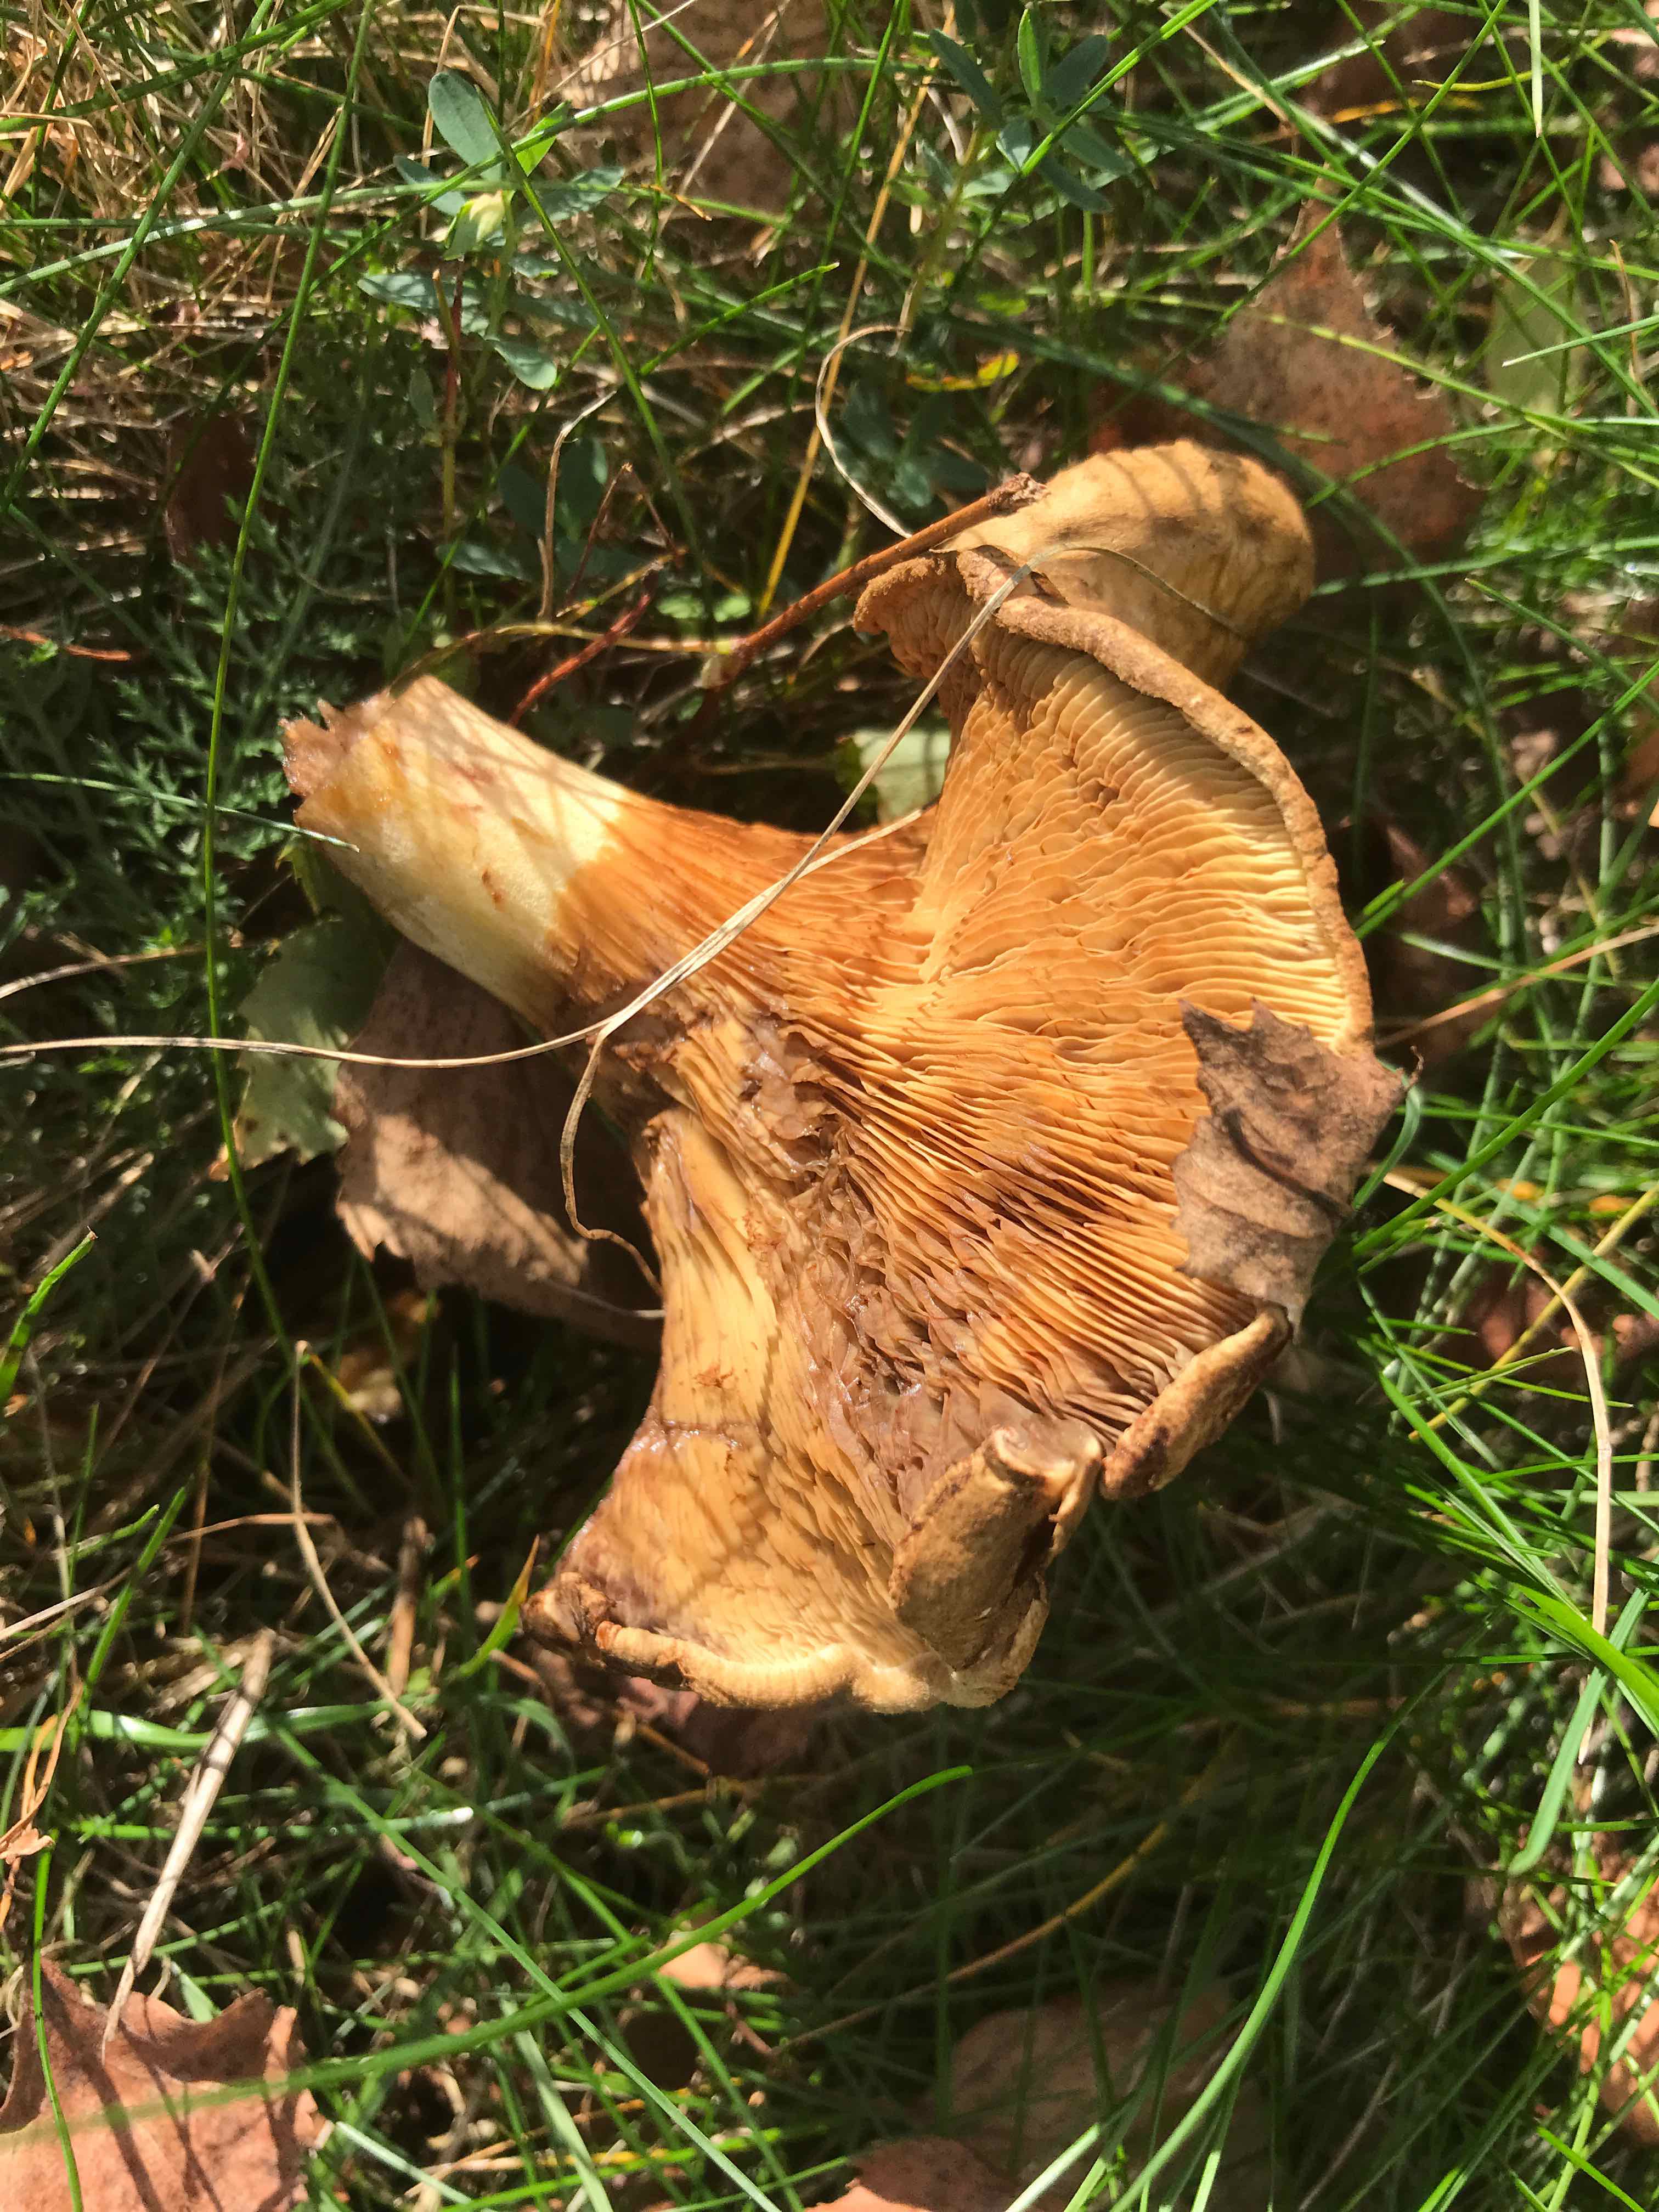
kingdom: Fungi
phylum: Basidiomycota
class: Agaricomycetes
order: Boletales
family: Paxillaceae
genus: Paxillus
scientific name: Paxillus
